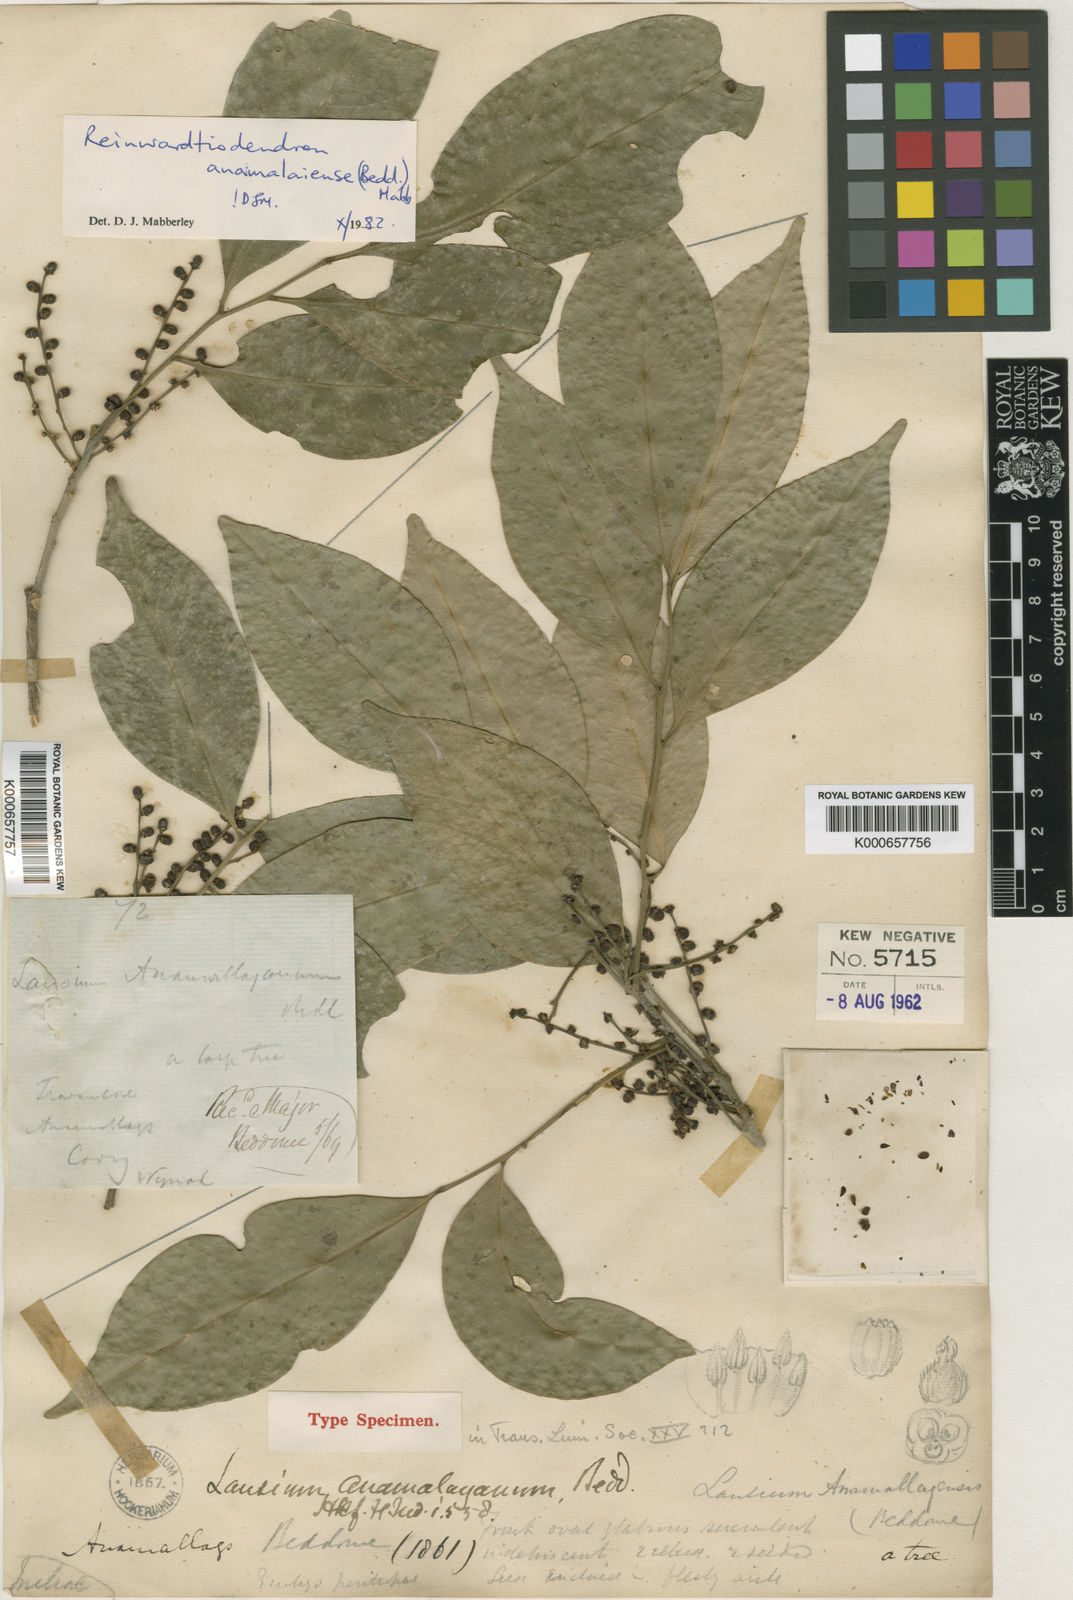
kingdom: Plantae
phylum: Tracheophyta
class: Magnoliopsida
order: Sapindales
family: Meliaceae
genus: Reinwardtiodendron
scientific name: Reinwardtiodendron anamalaiense
